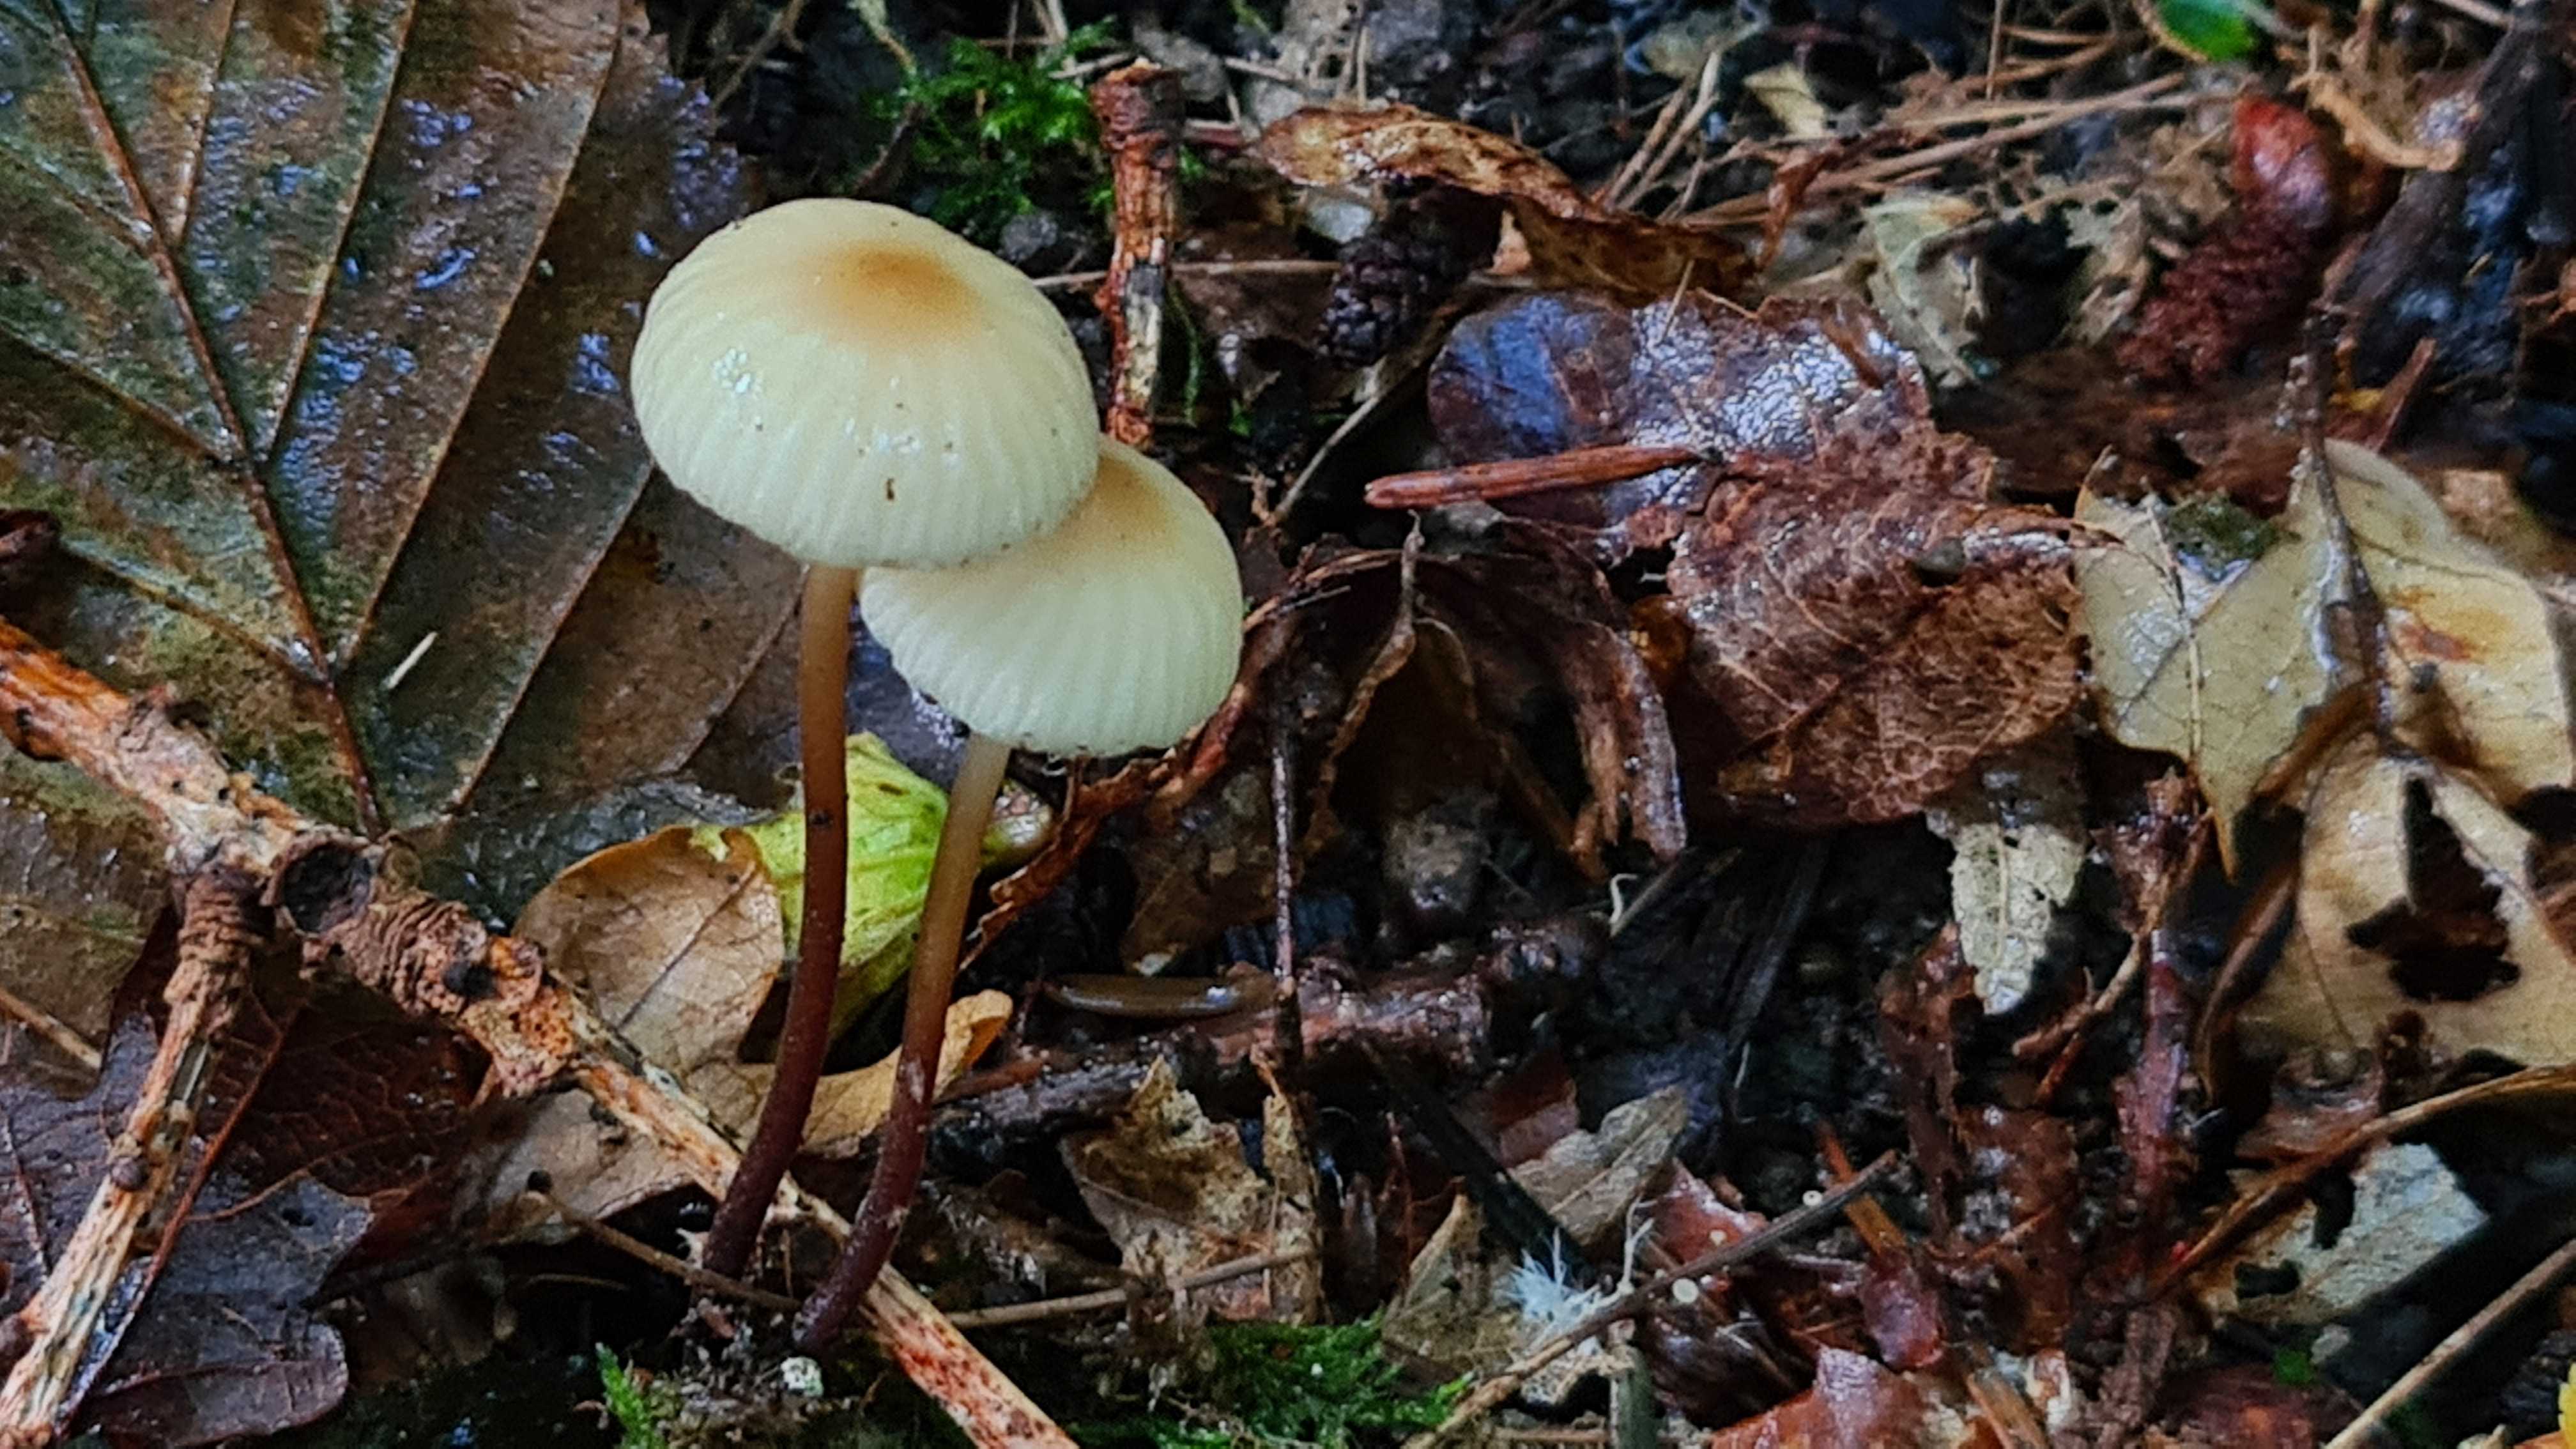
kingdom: Fungi
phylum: Basidiomycota
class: Agaricomycetes
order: Agaricales
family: Marasmiaceae
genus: Marasmius
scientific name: Marasmius torquescens
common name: filtfodet bruskhat
